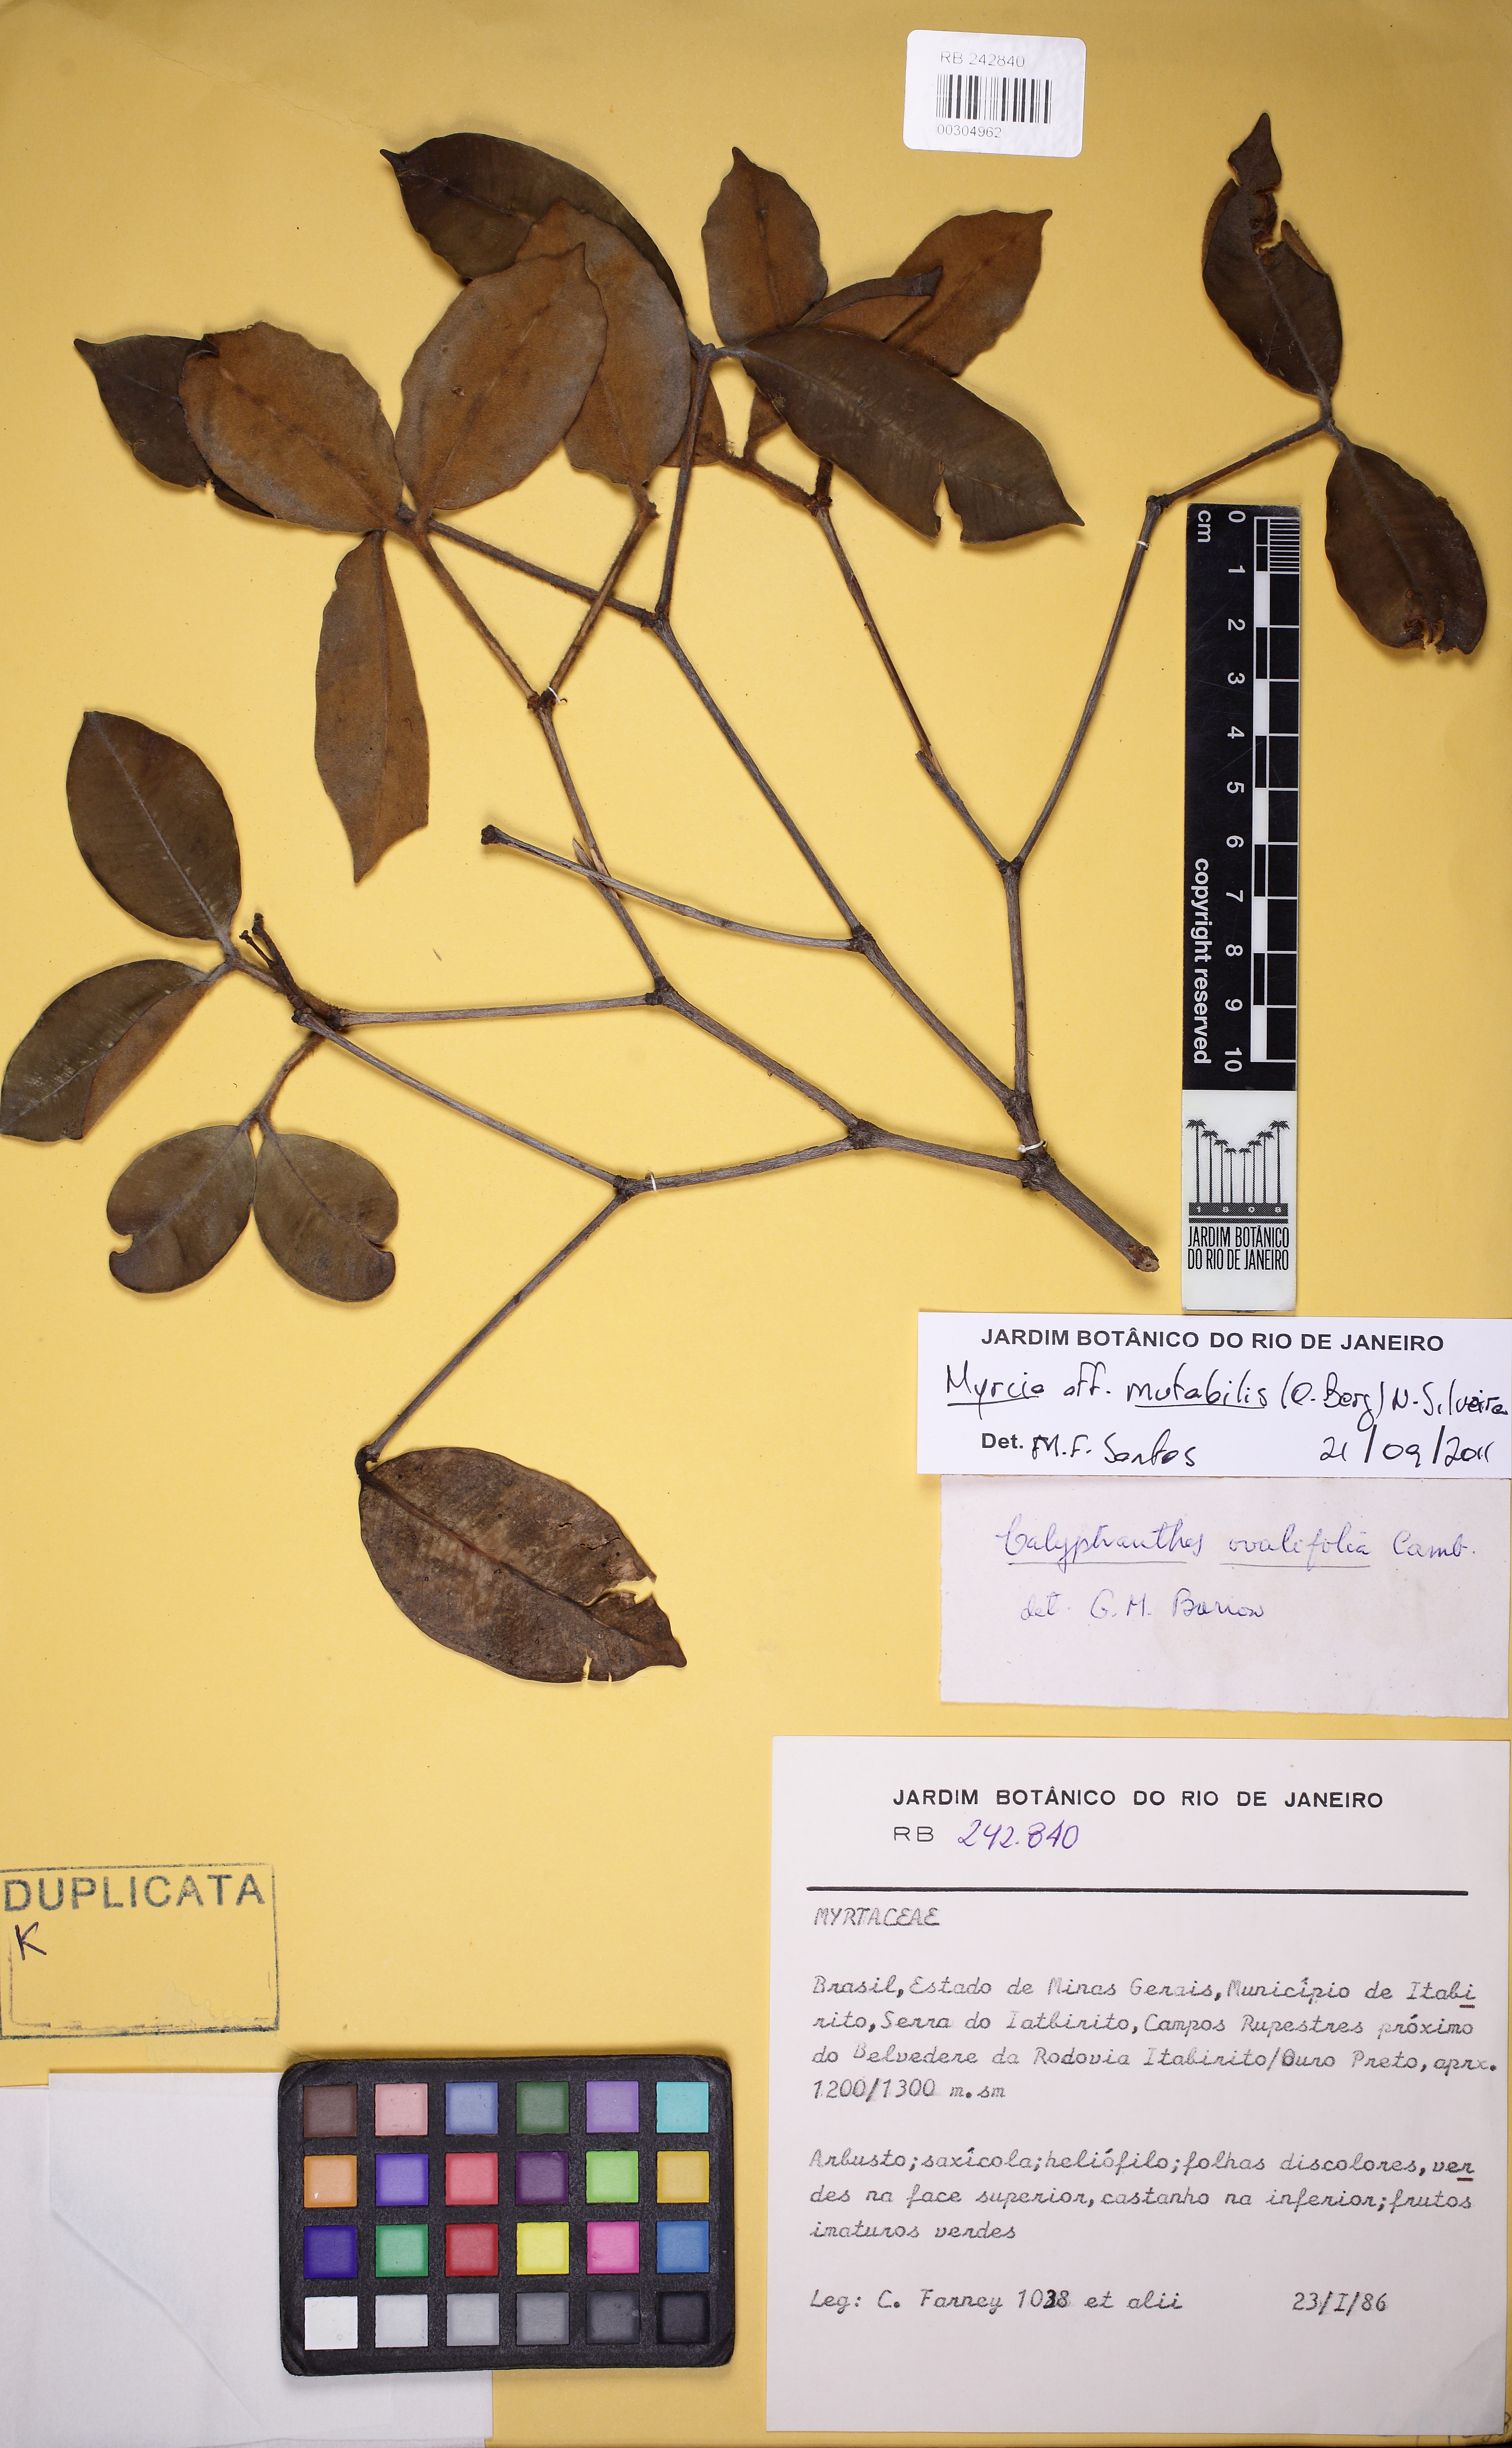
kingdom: Plantae
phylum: Tracheophyta
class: Magnoliopsida
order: Myrtales
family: Myrtaceae
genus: Myrcia
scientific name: Myrcia mutabilis
